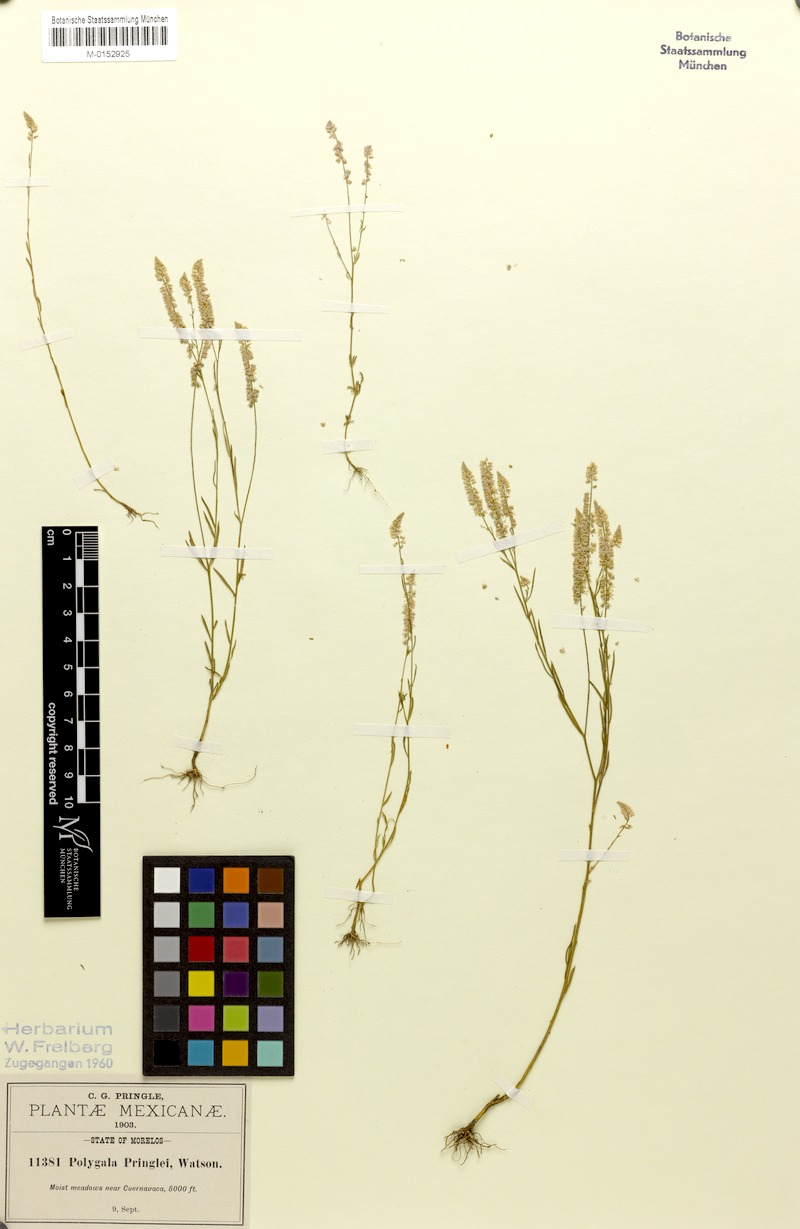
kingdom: Plantae
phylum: Tracheophyta
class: Magnoliopsida
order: Fabales
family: Polygalaceae
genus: Polygala
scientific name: Polygala tenella
